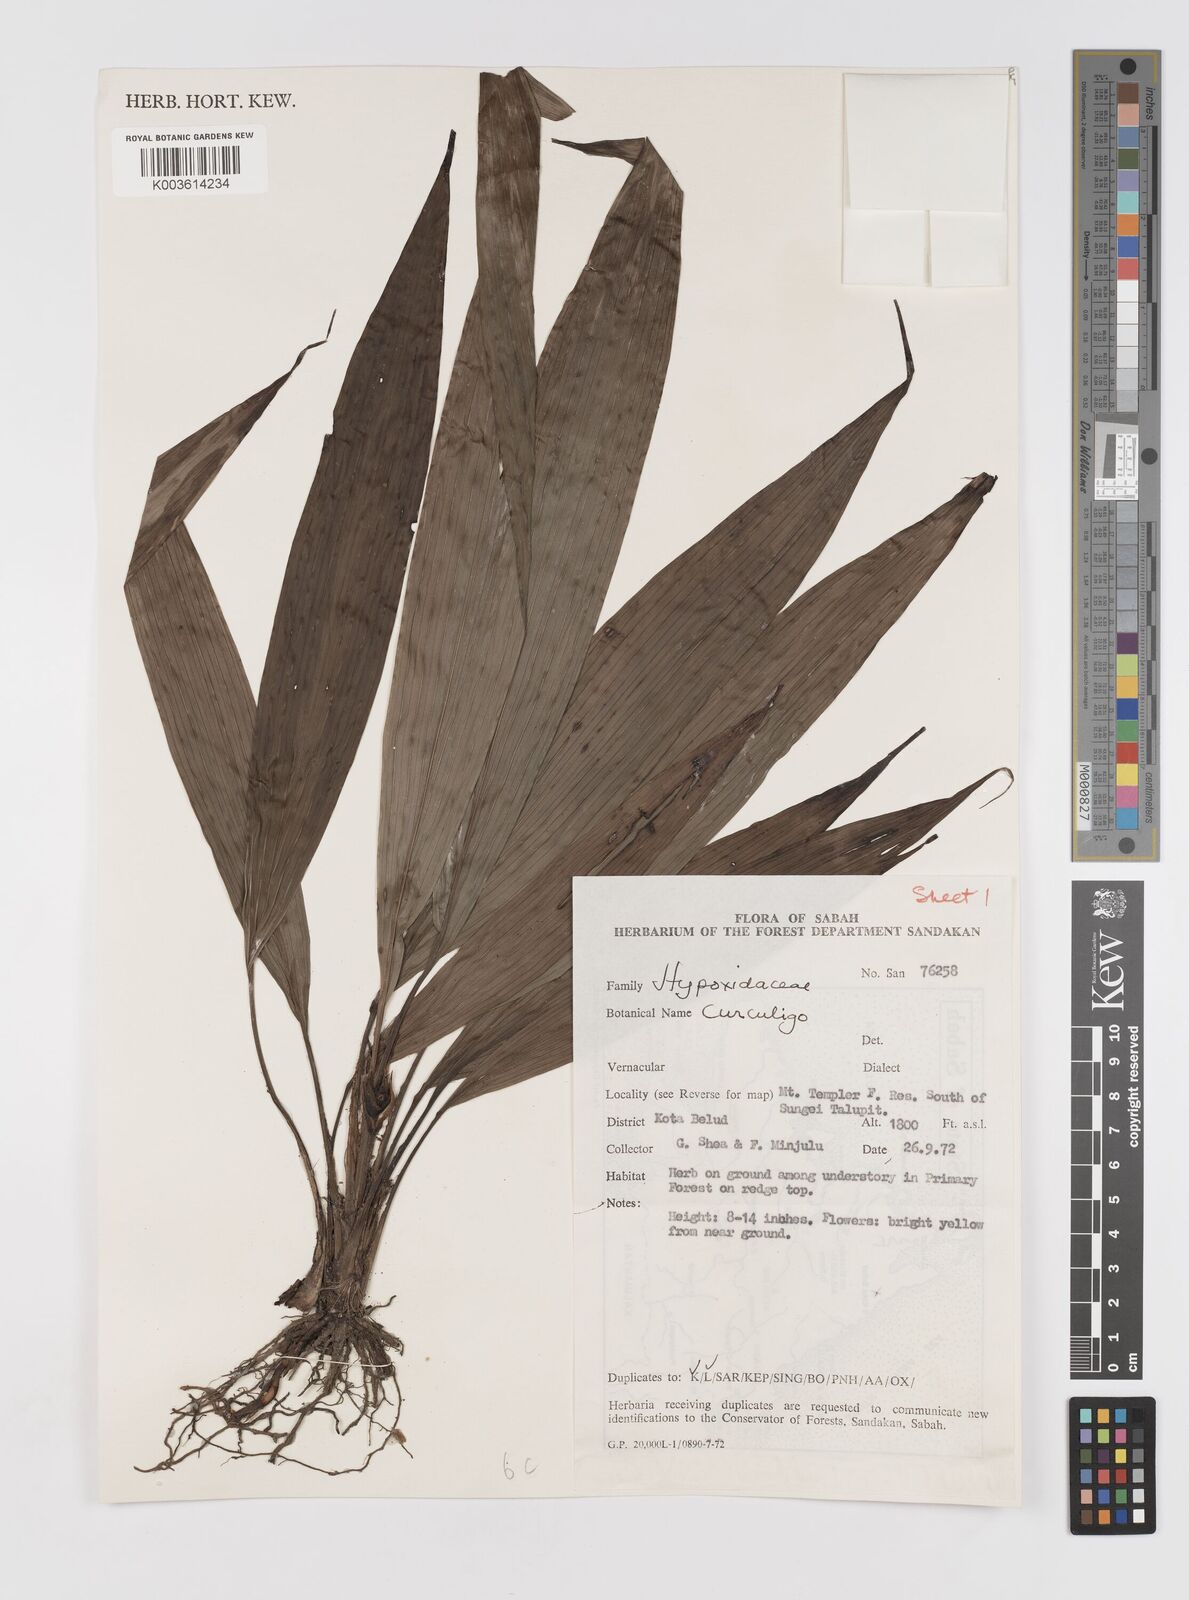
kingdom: Plantae
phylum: Tracheophyta
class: Liliopsida
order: Asparagales
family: Hypoxidaceae
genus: Curculigo
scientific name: Curculigo
